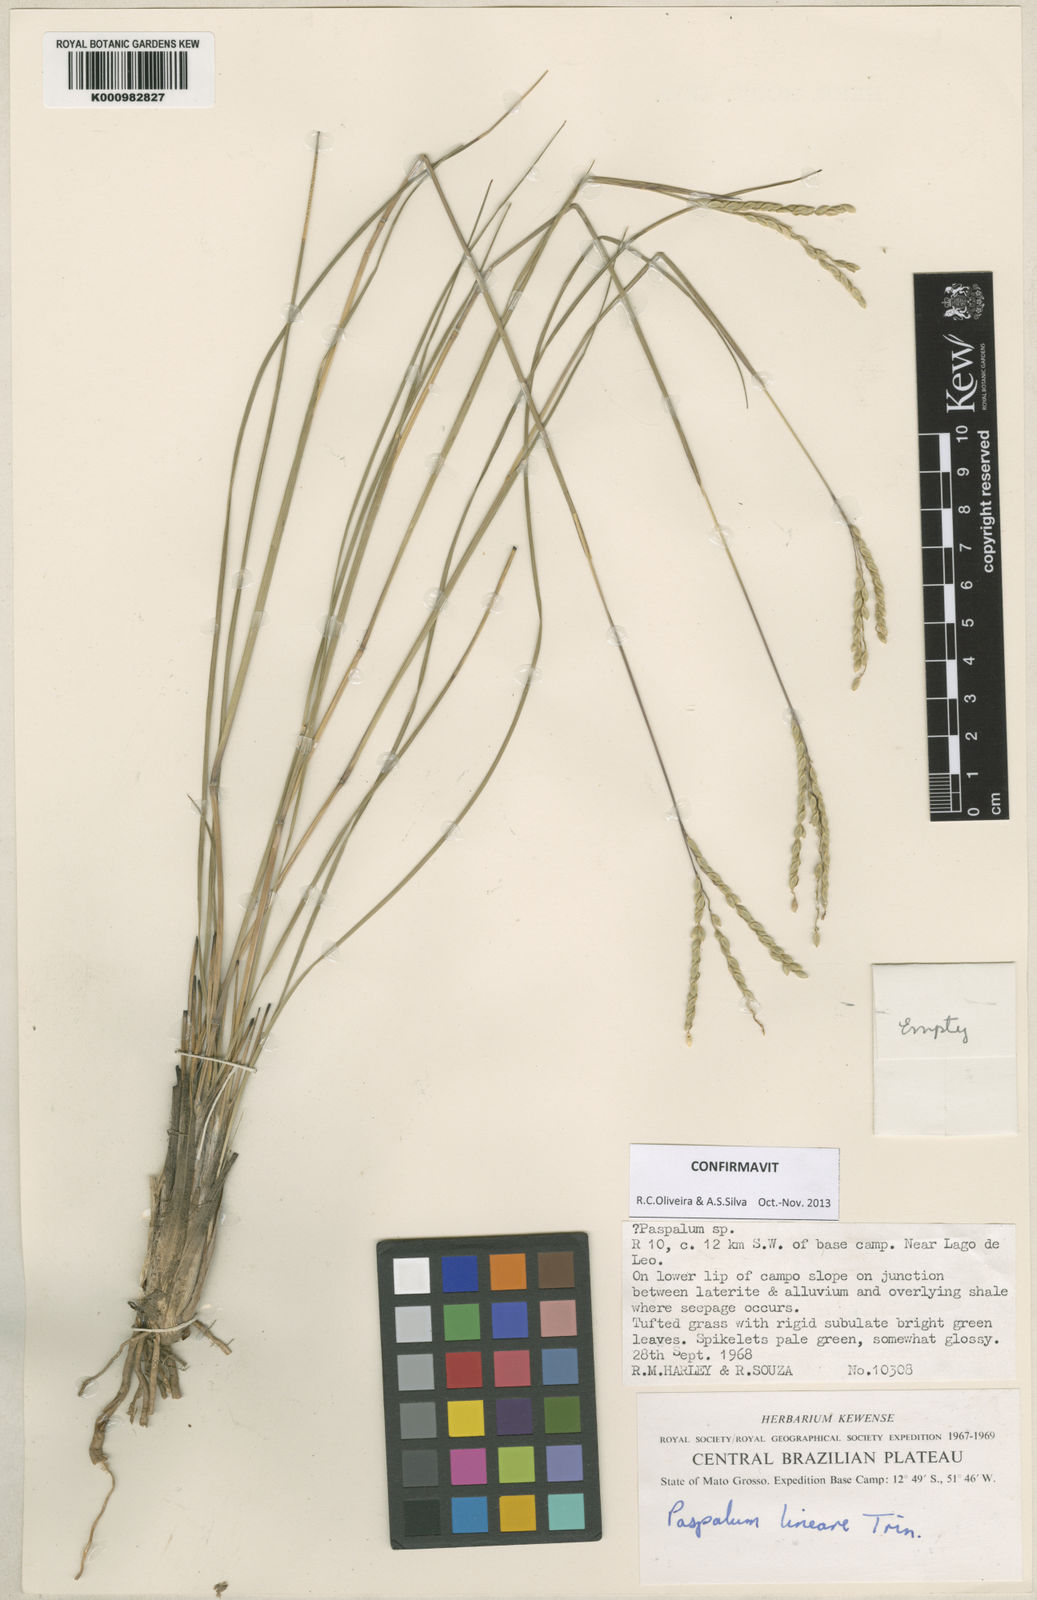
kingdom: Plantae
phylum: Tracheophyta
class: Liliopsida
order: Poales
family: Poaceae
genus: Paspalum
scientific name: Paspalum lineare
